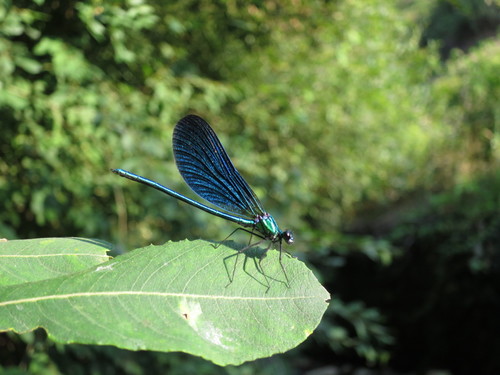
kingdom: Animalia
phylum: Arthropoda
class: Insecta
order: Odonata
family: Calopterygidae
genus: Calopteryx
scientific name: Calopteryx virgo
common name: Beautiful demoiselle
